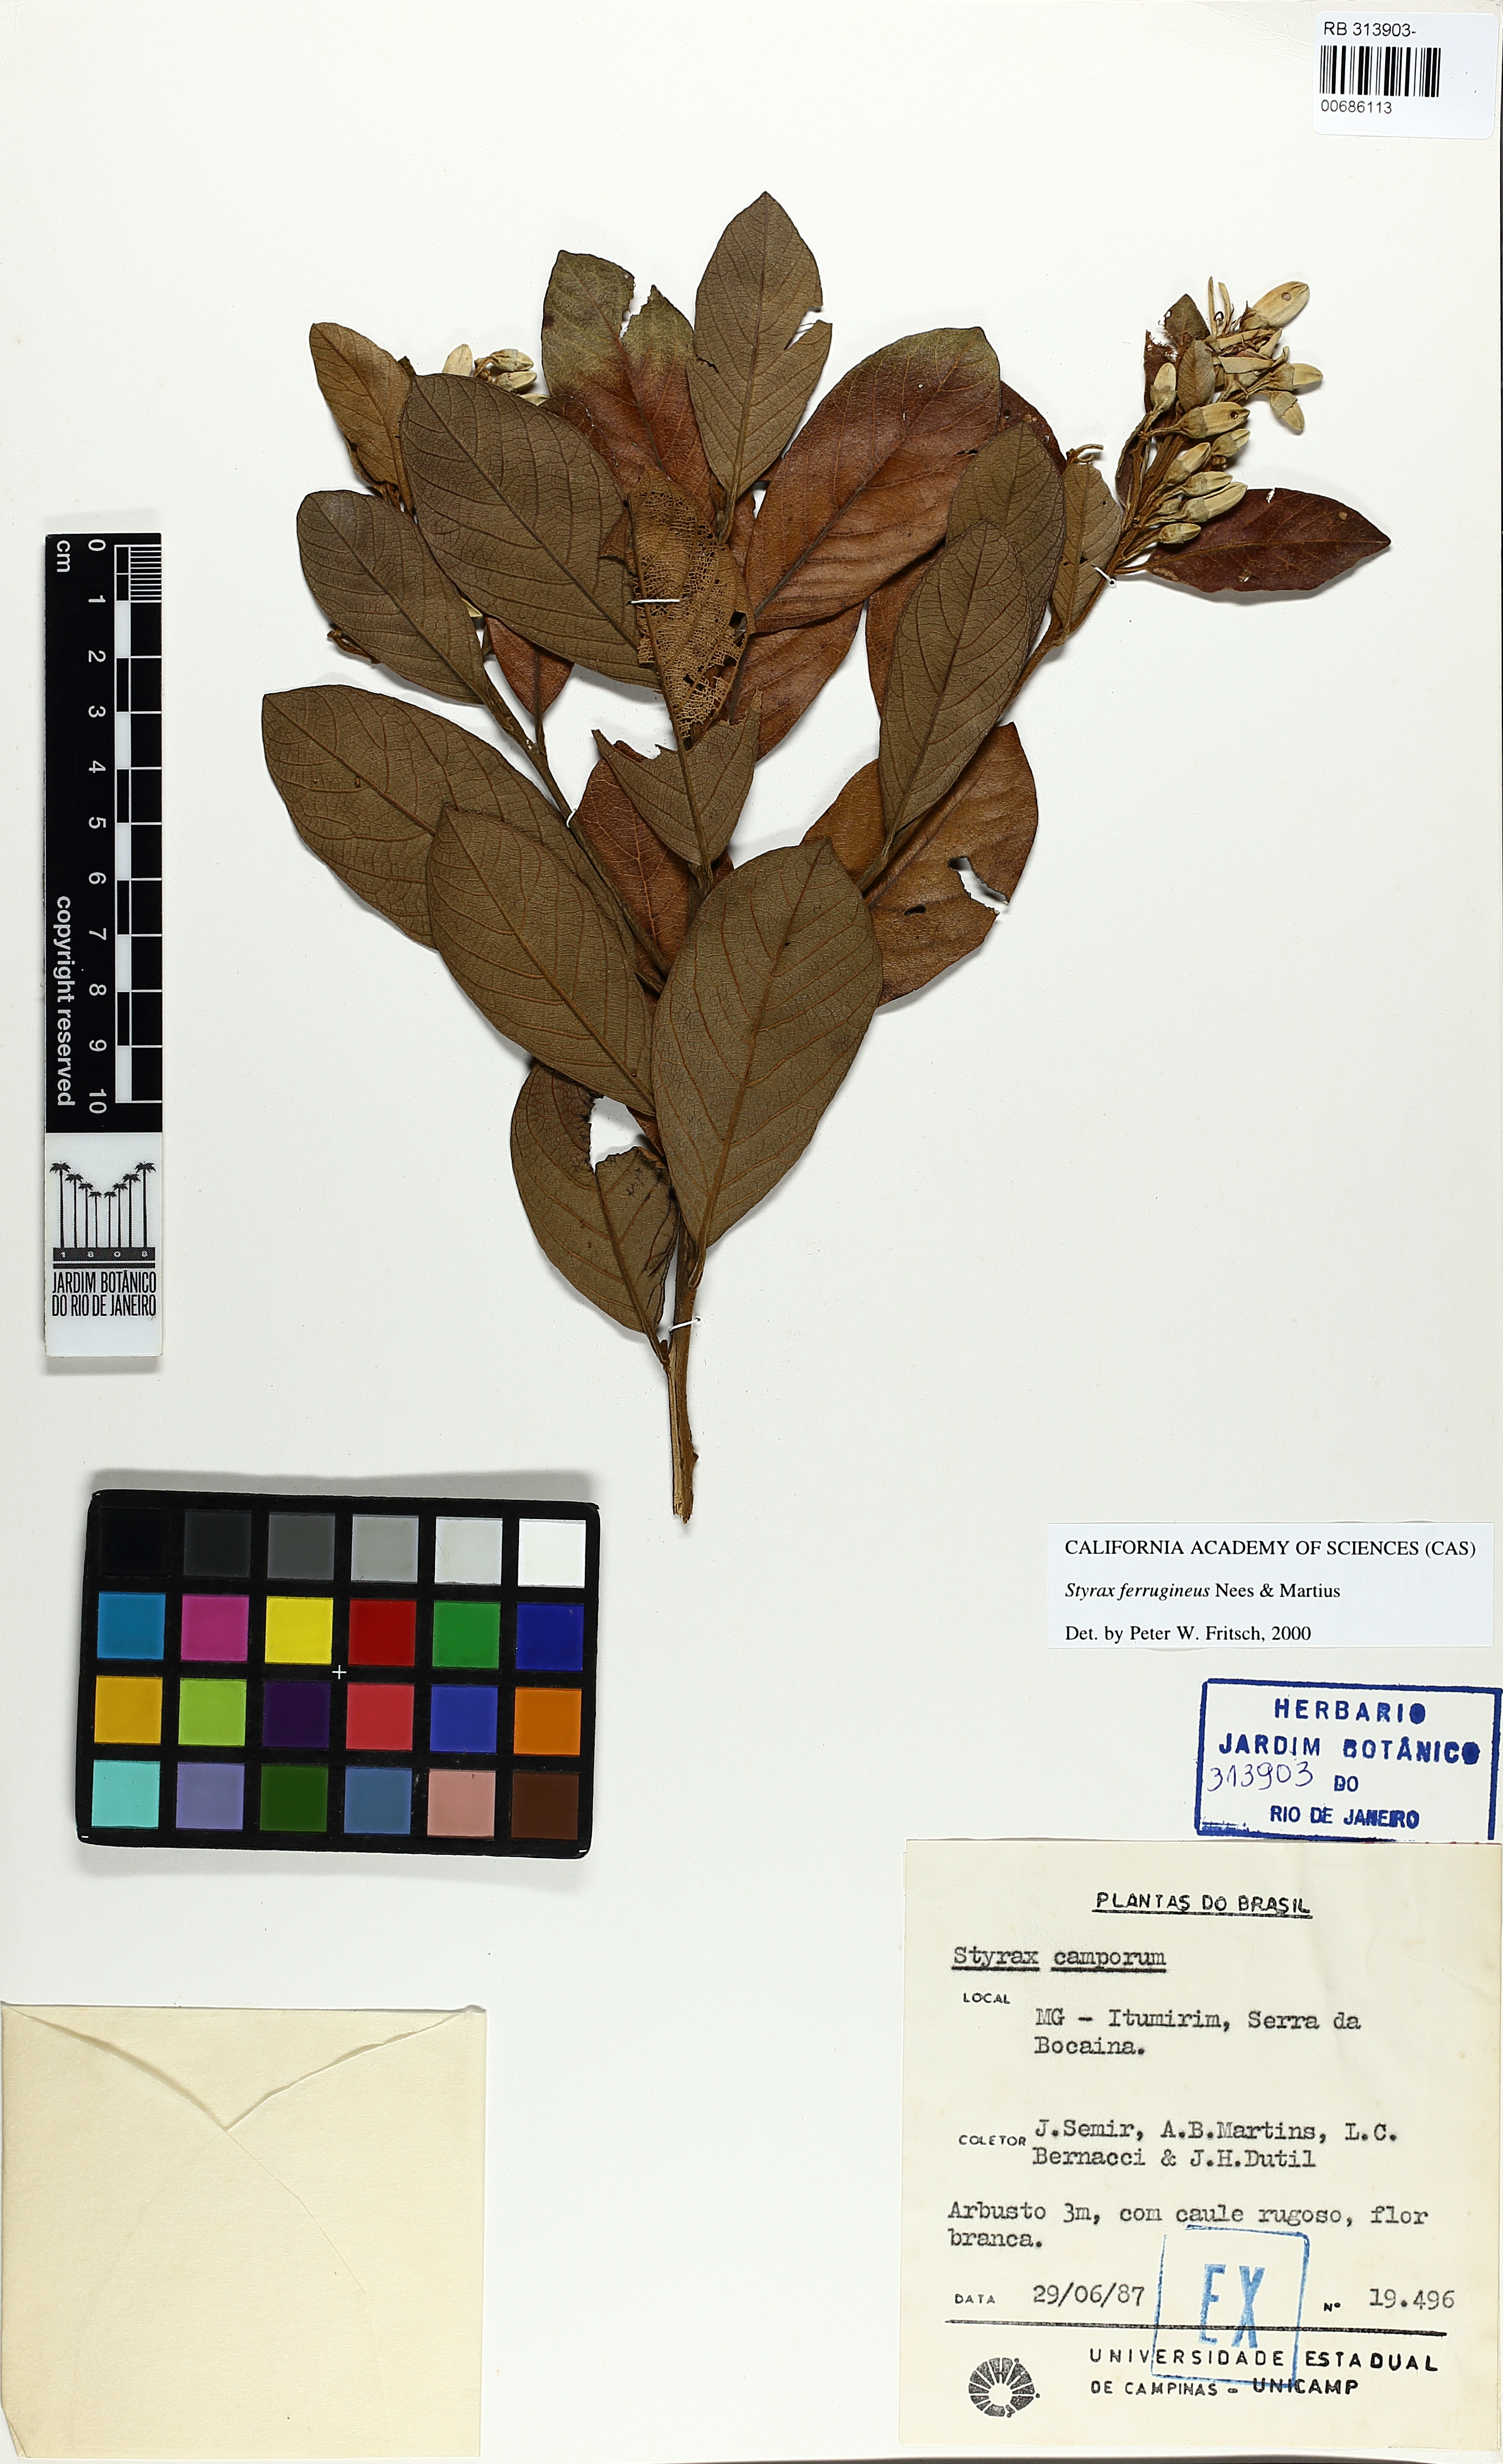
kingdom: Plantae
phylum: Tracheophyta
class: Magnoliopsida
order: Ericales
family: Styracaceae
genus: Styrax
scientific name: Styrax ferrugineus
